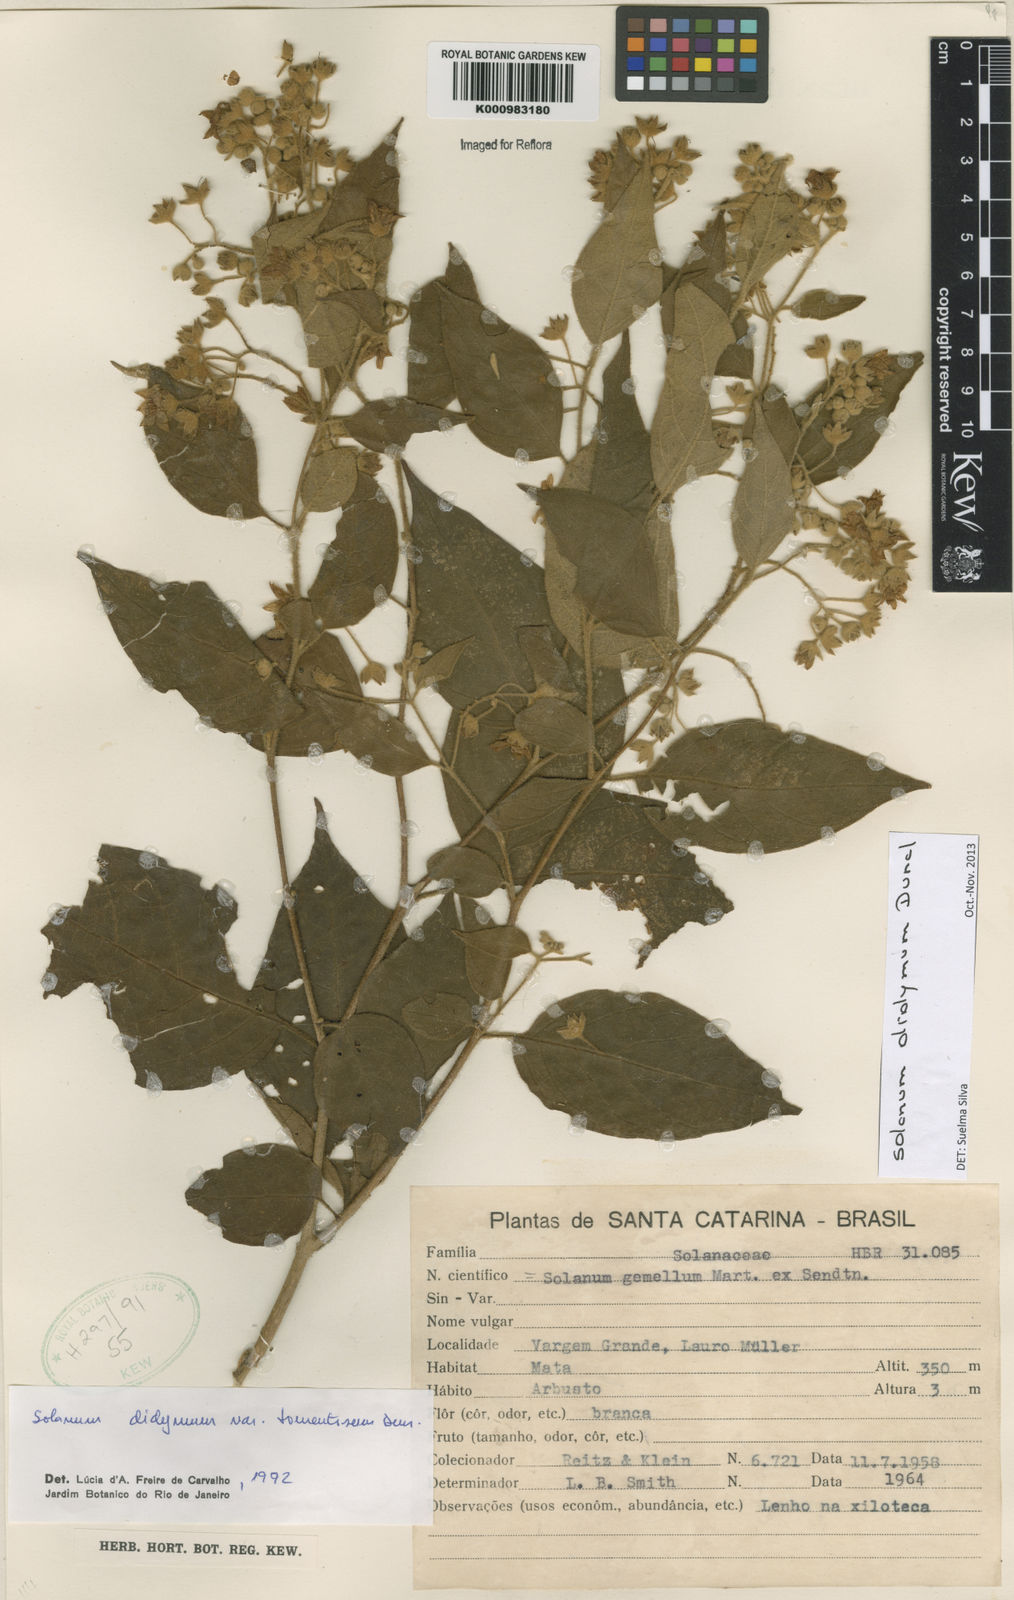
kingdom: Plantae
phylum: Tracheophyta
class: Magnoliopsida
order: Solanales
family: Solanaceae
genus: Solanum
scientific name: Solanum subsylvestre
